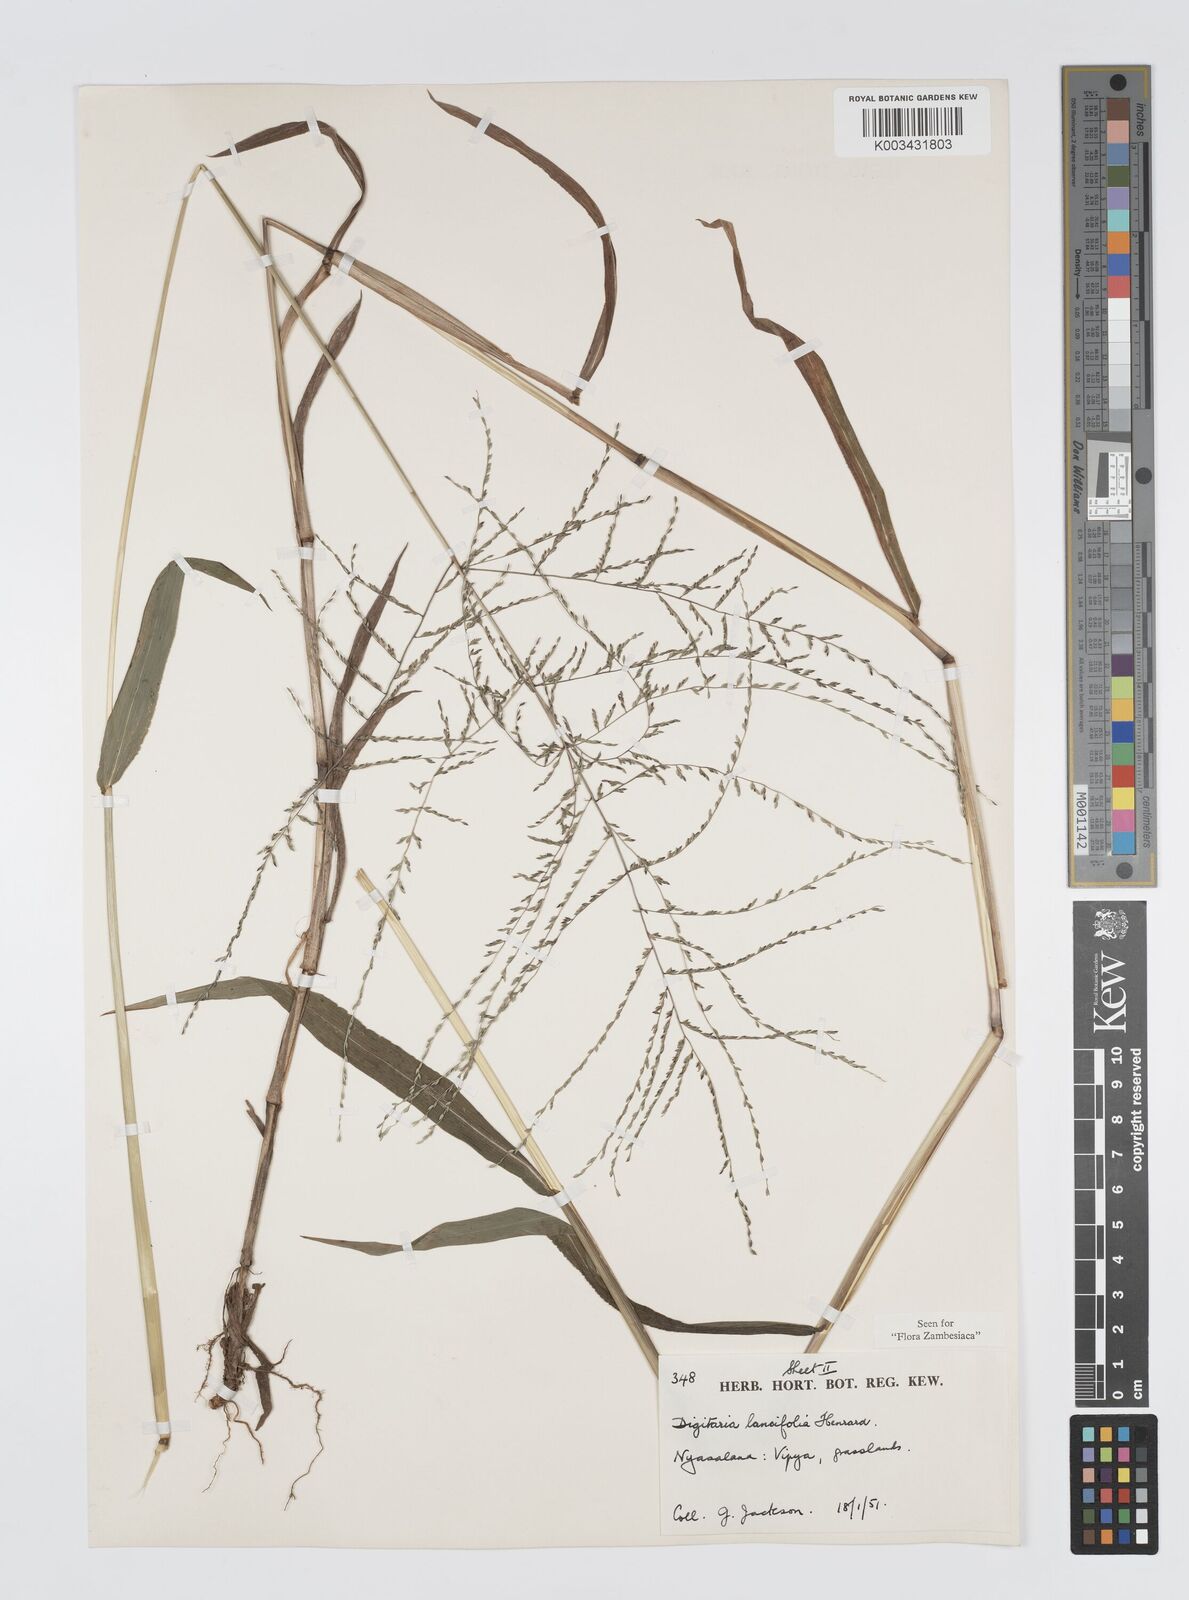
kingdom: Plantae
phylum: Tracheophyta
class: Liliopsida
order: Poales
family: Poaceae
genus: Digitaria
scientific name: Digitaria pearsonii
